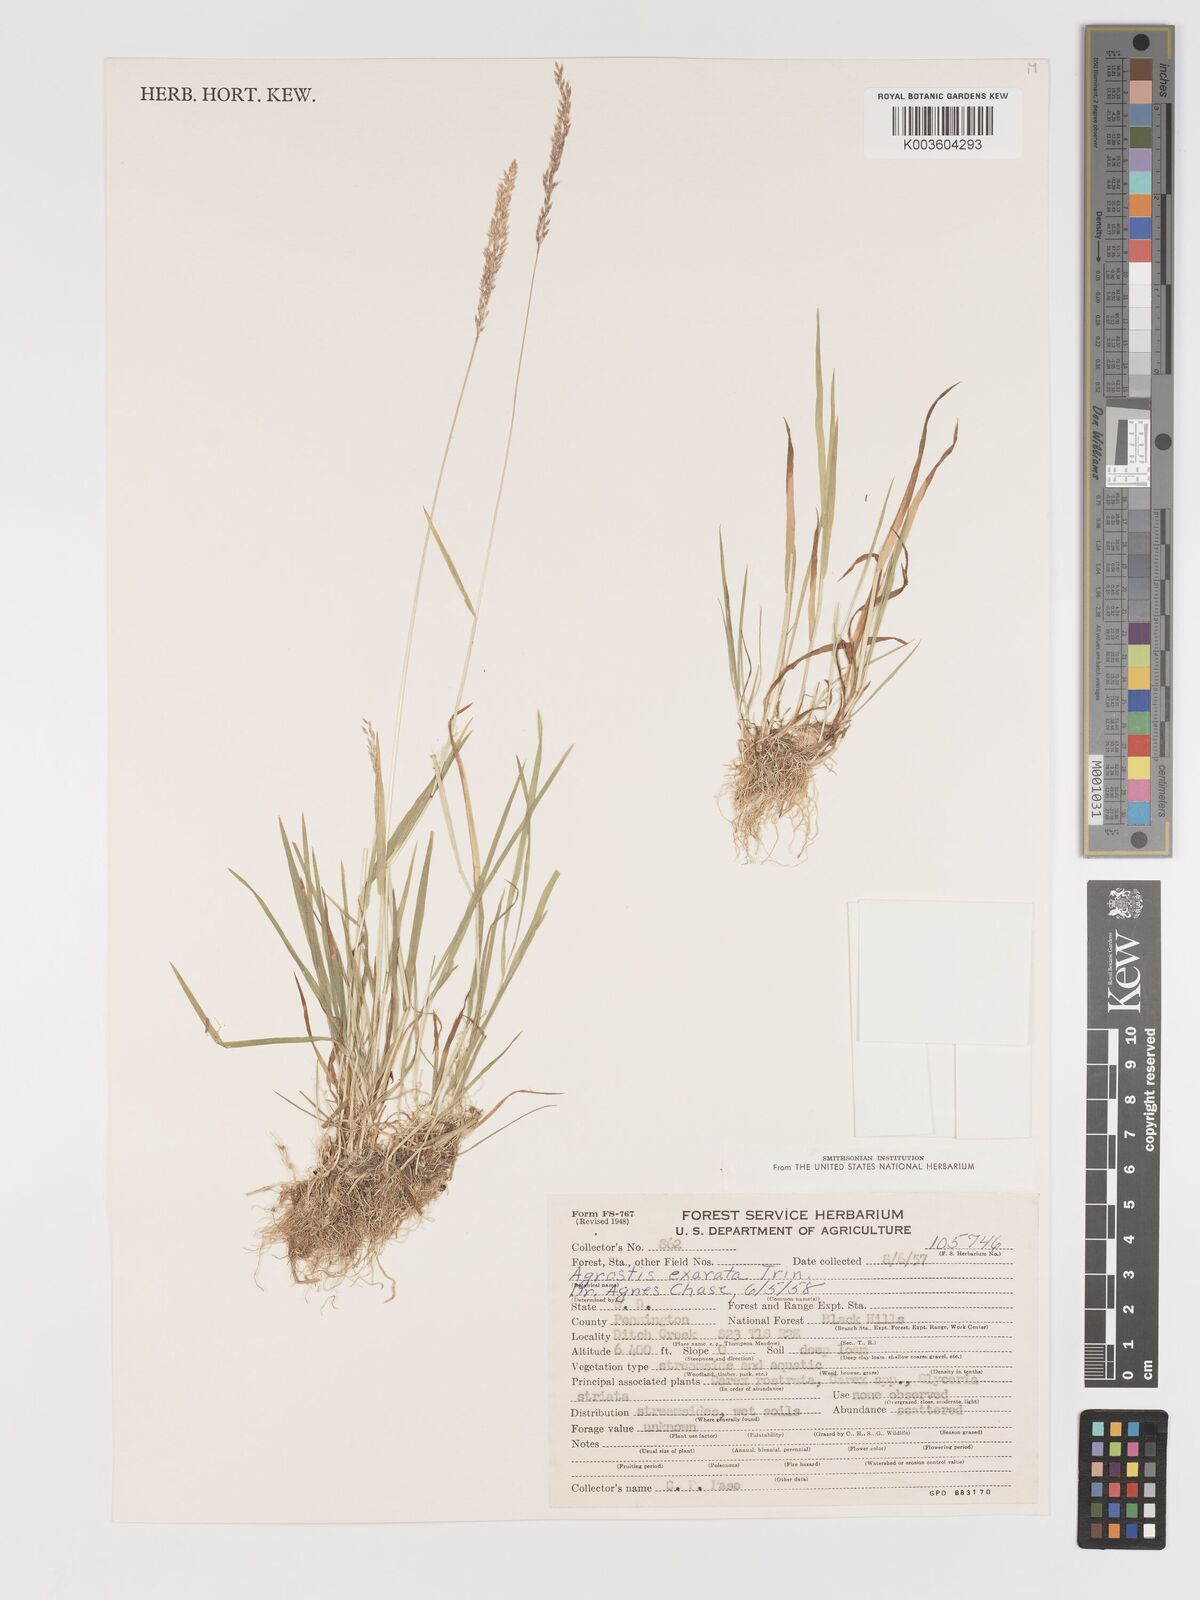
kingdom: Plantae
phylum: Tracheophyta
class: Liliopsida
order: Poales
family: Poaceae
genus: Agrostis
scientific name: Agrostis exarata
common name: Spike bent
